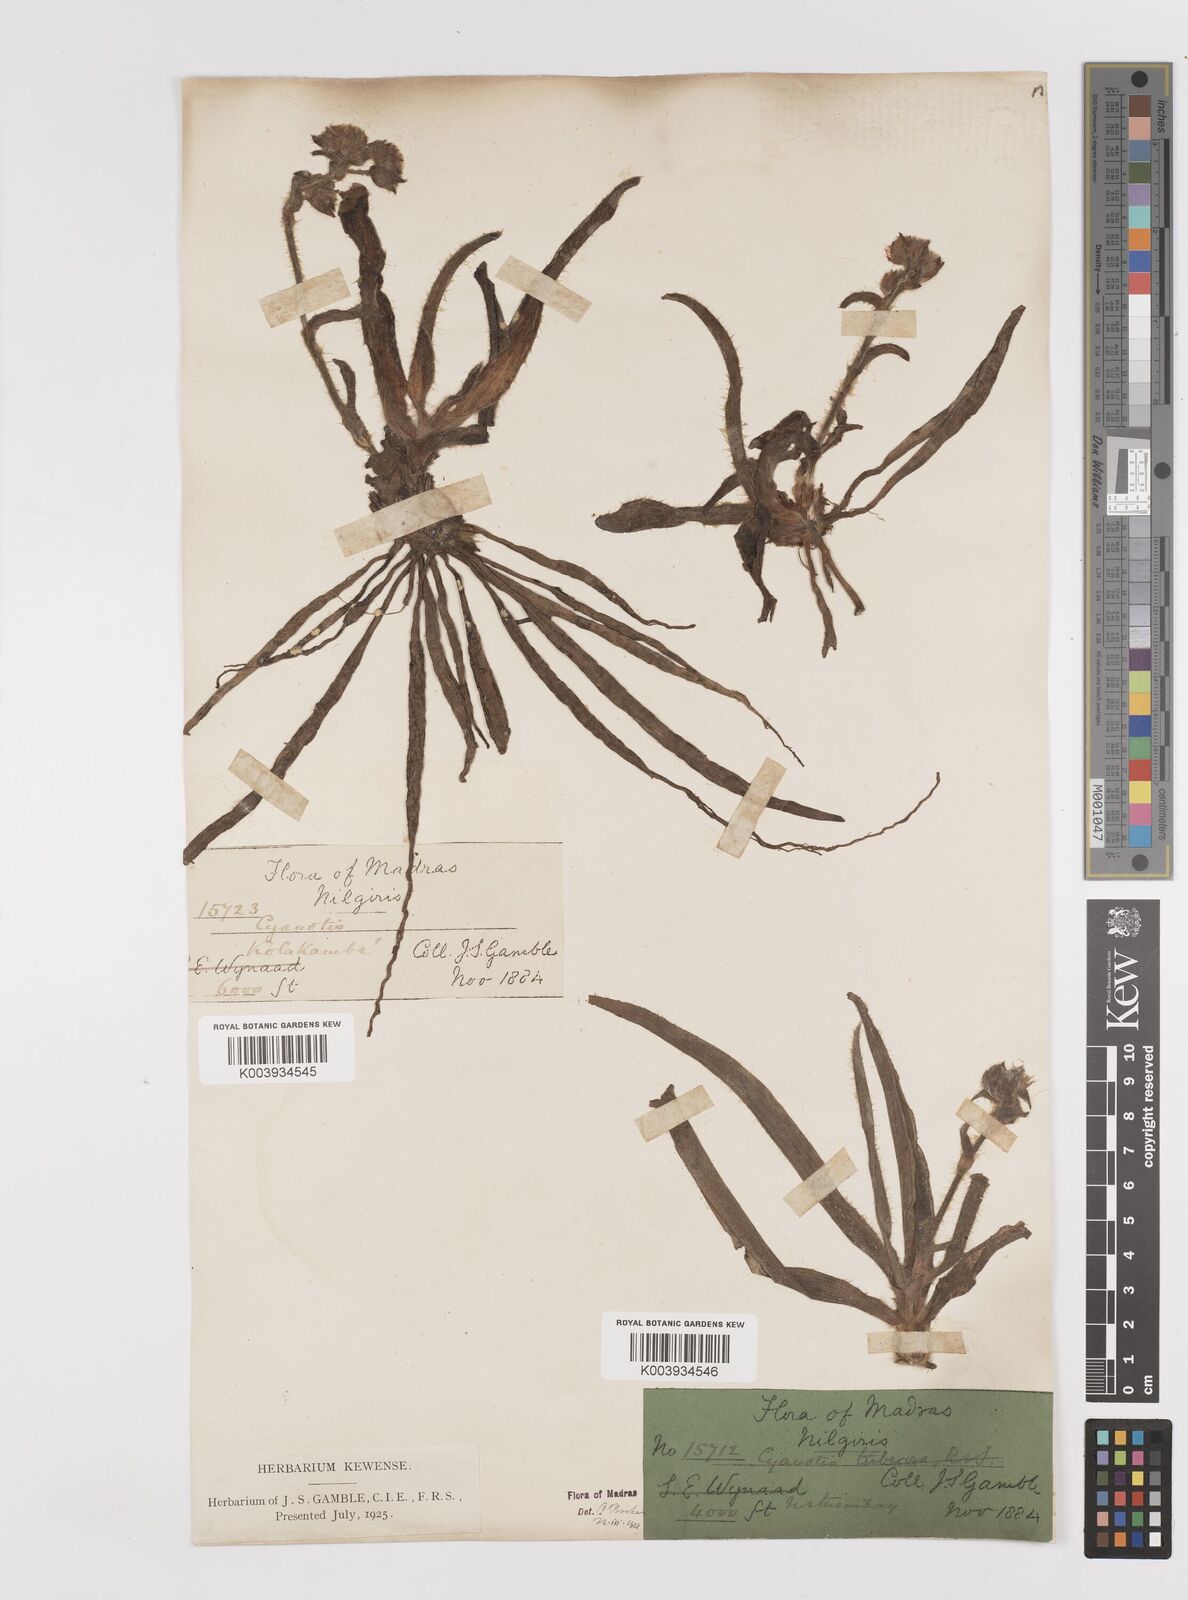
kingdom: Plantae
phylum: Tracheophyta
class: Liliopsida
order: Commelinales
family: Commelinaceae
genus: Cyanotis
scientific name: Cyanotis tuberosa
